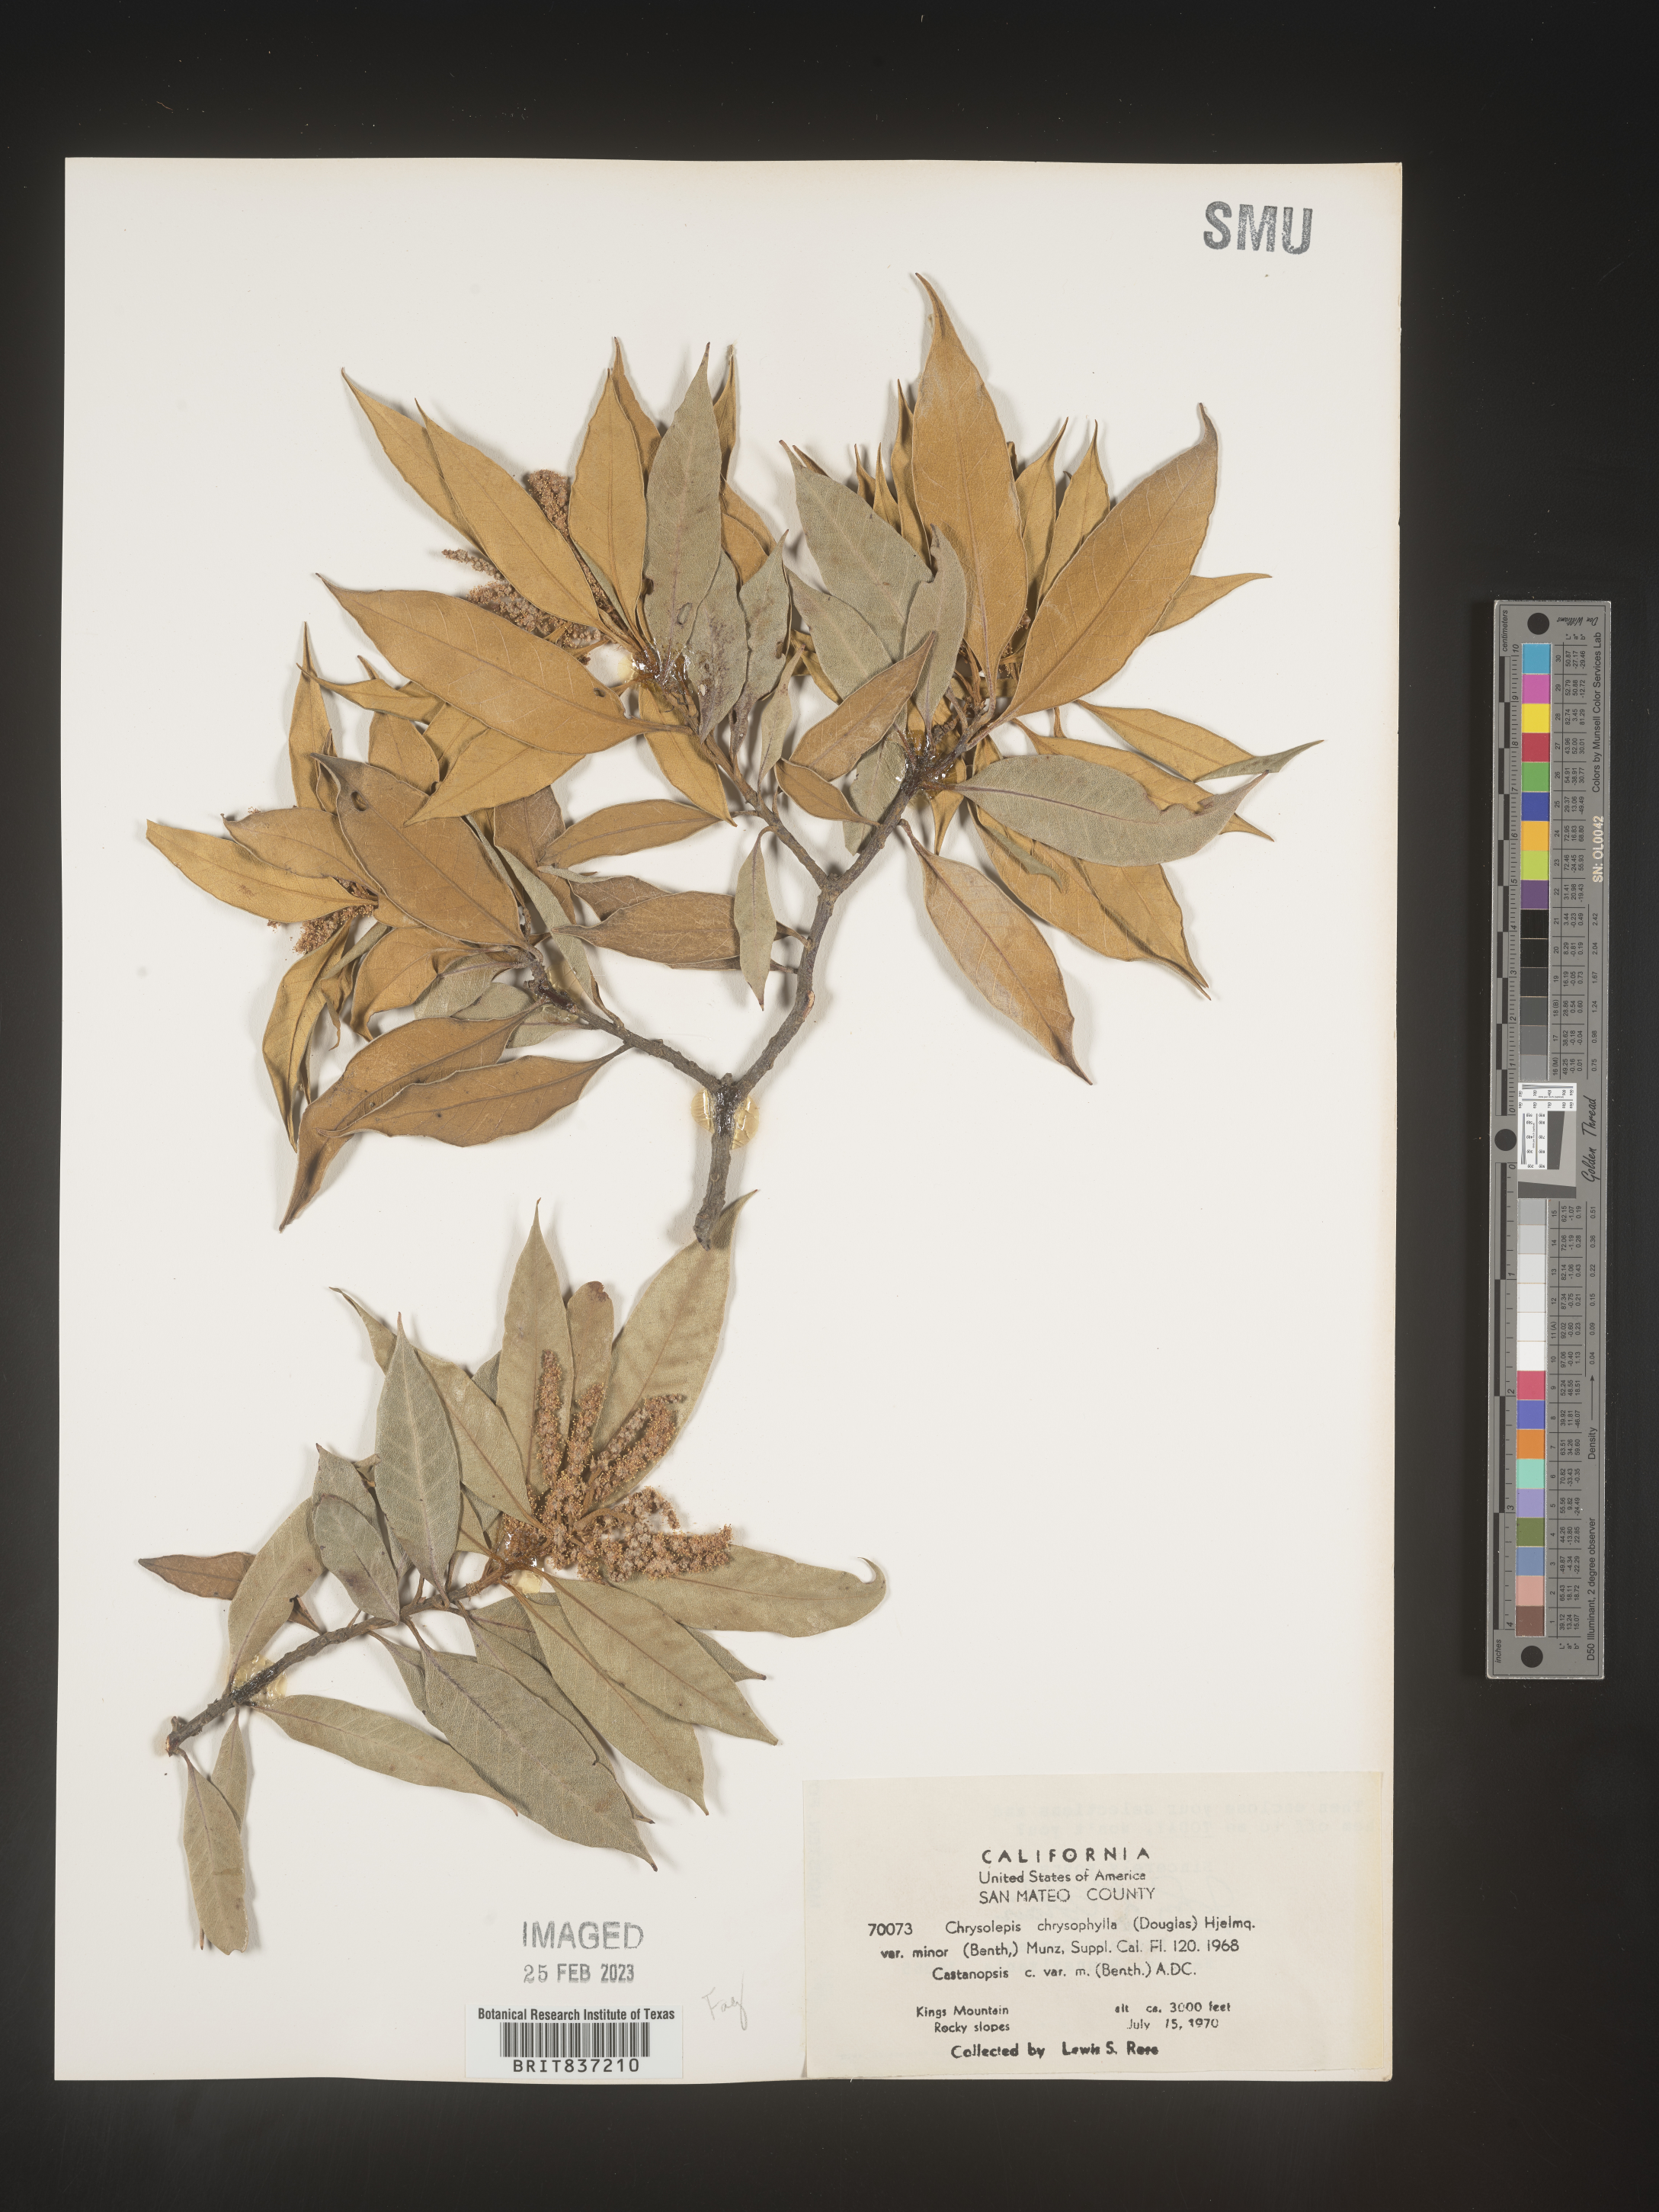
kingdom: Plantae
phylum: Tracheophyta
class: Magnoliopsida
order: Fagales
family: Fagaceae
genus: Castanopsis
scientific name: Castanopsis
